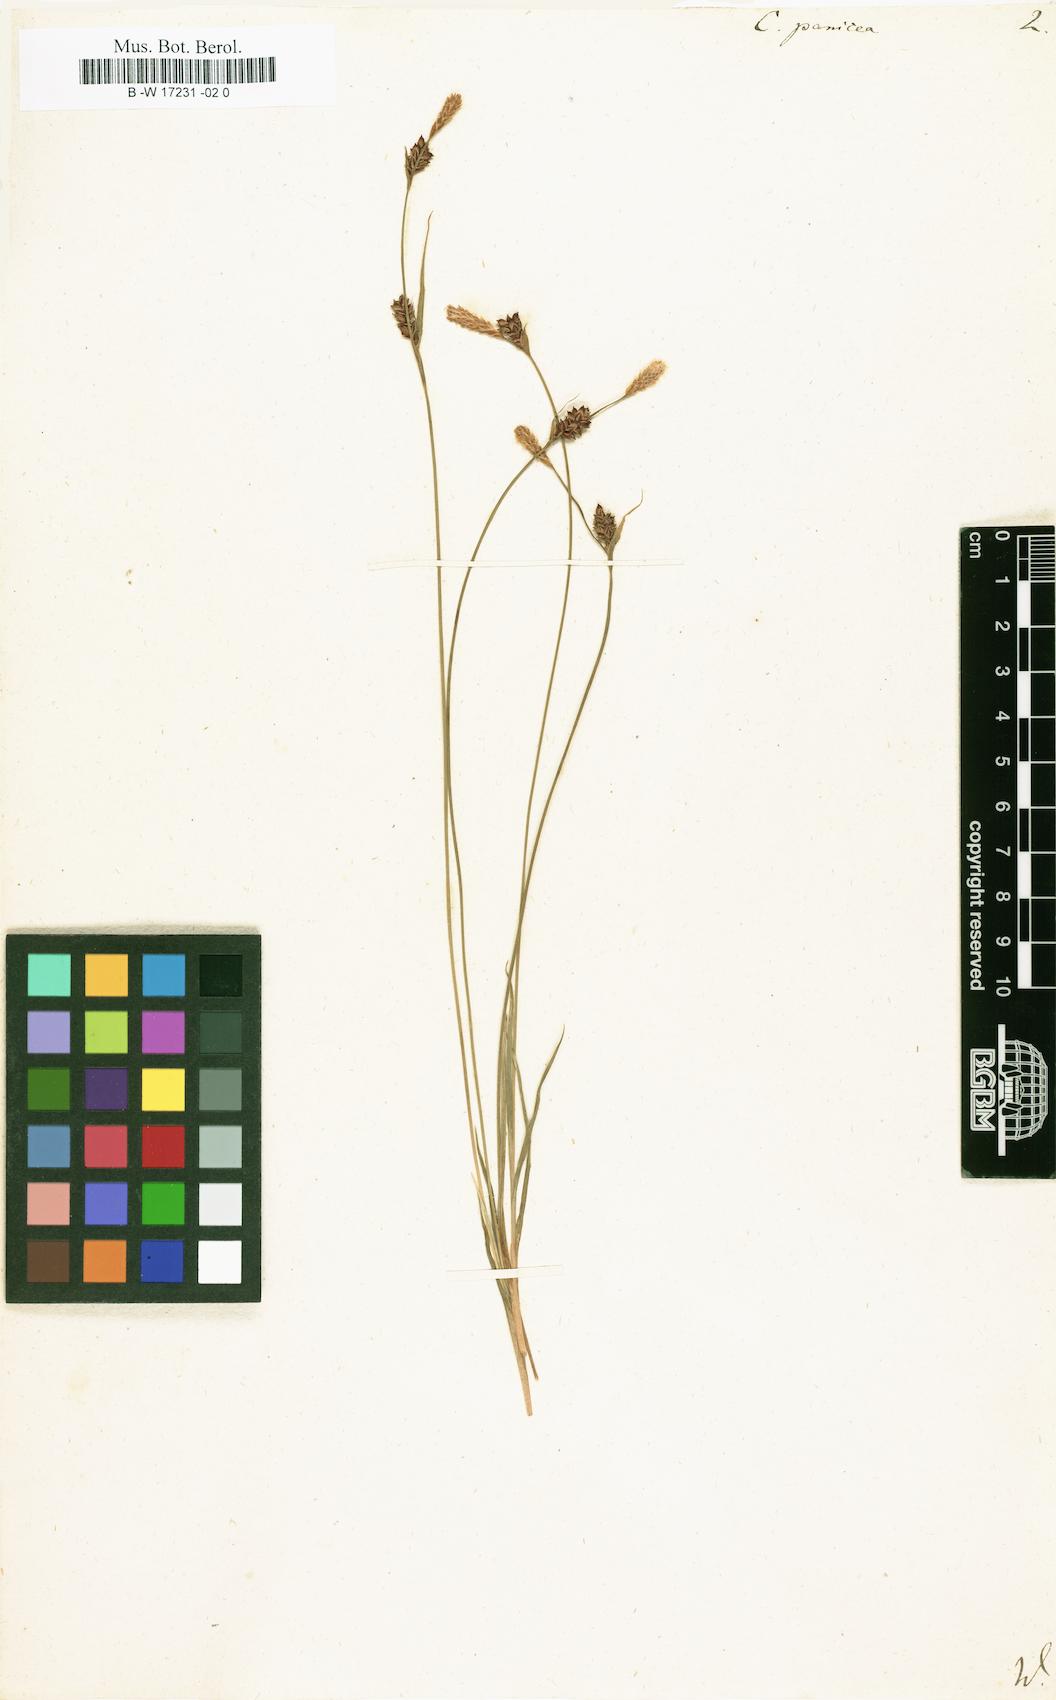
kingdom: Plantae
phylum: Tracheophyta
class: Liliopsida
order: Poales
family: Cyperaceae
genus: Carex
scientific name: Carex panicea
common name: Carnation sedge
